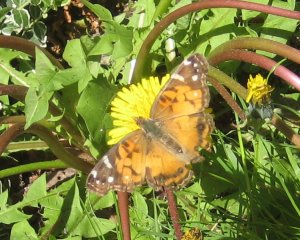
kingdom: Animalia
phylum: Arthropoda
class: Insecta
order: Lepidoptera
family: Nymphalidae
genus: Vanessa
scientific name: Vanessa cardui
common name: Painted Lady
